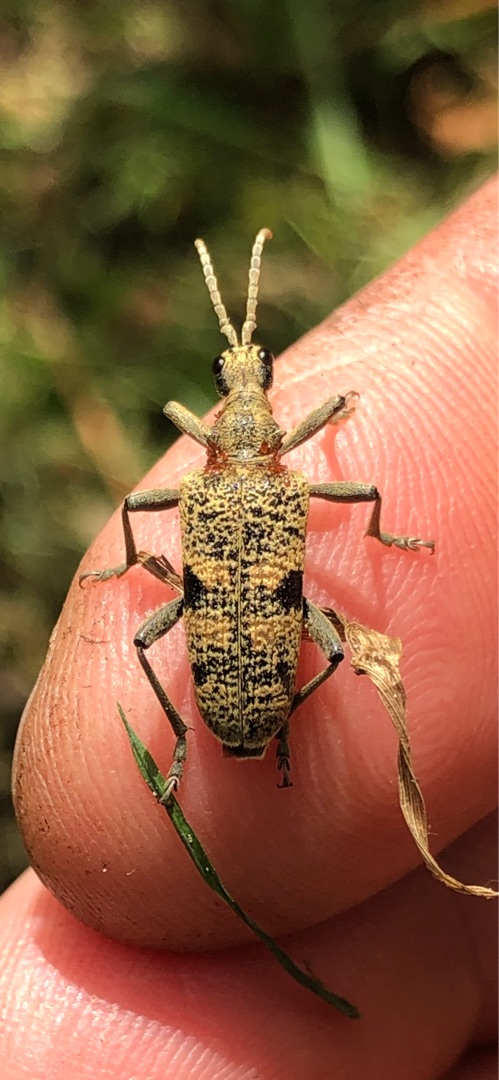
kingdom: Animalia
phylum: Arthropoda
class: Insecta
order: Coleoptera
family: Cerambycidae
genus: Rhagium
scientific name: Rhagium mordax
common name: Blankplettet tandbuk
